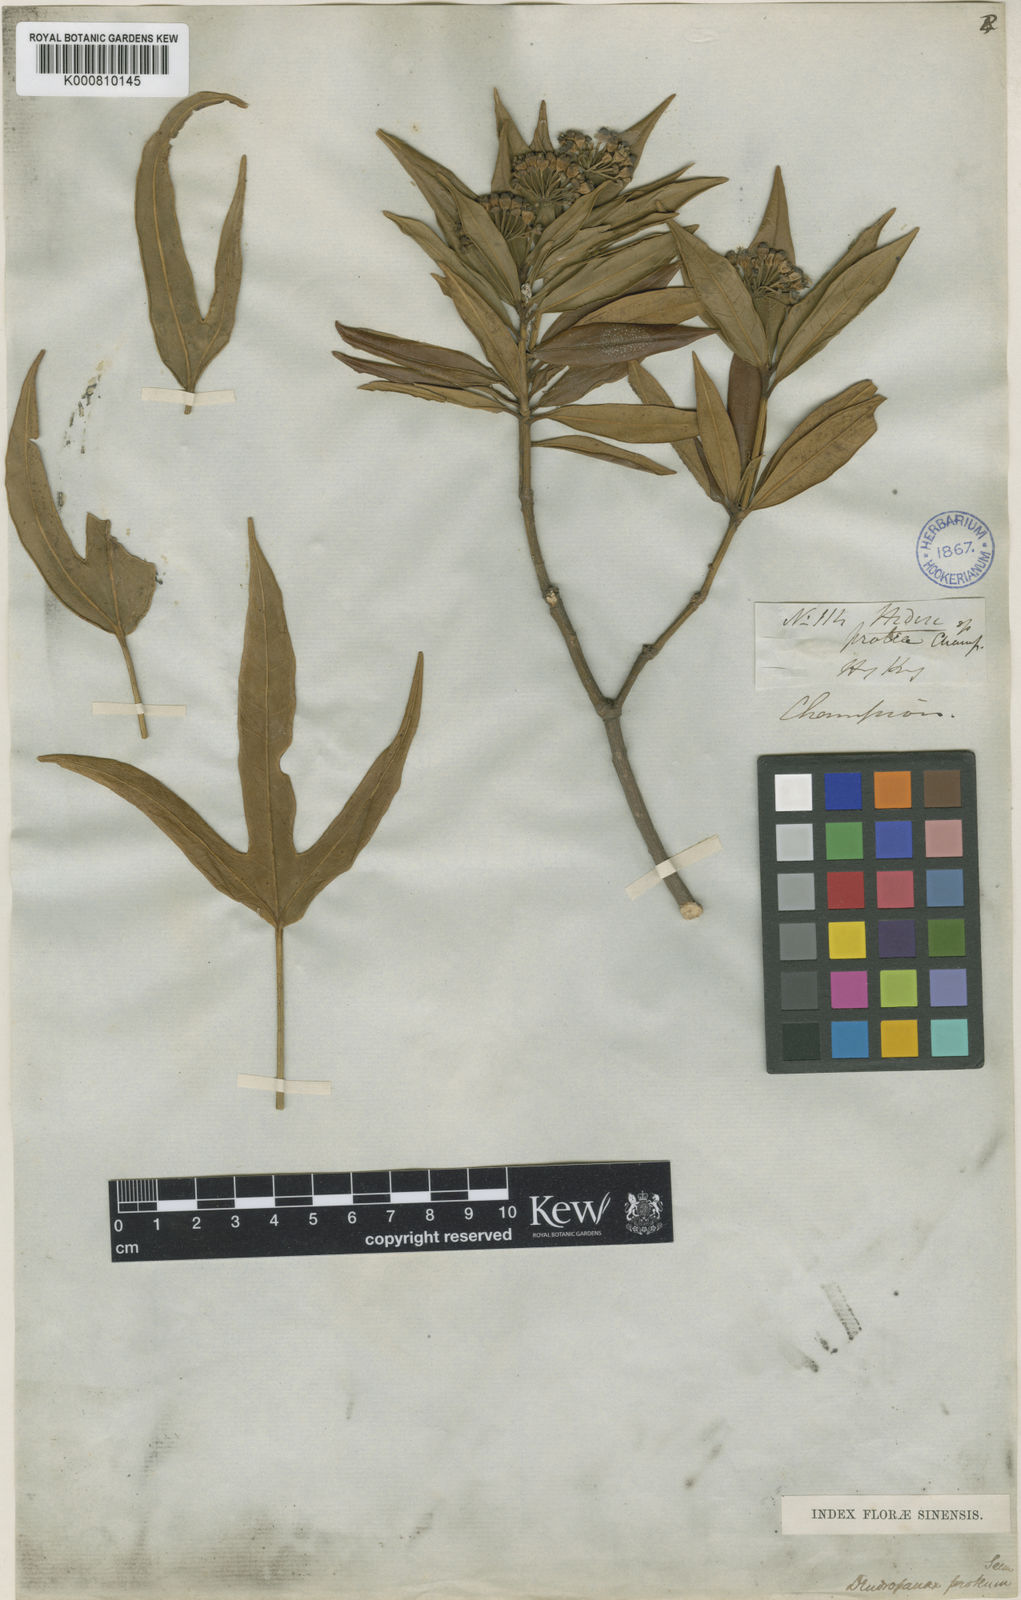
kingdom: Plantae
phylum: Tracheophyta
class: Magnoliopsida
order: Apiales
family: Araliaceae
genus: Dendropanax
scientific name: Dendropanax proteus
